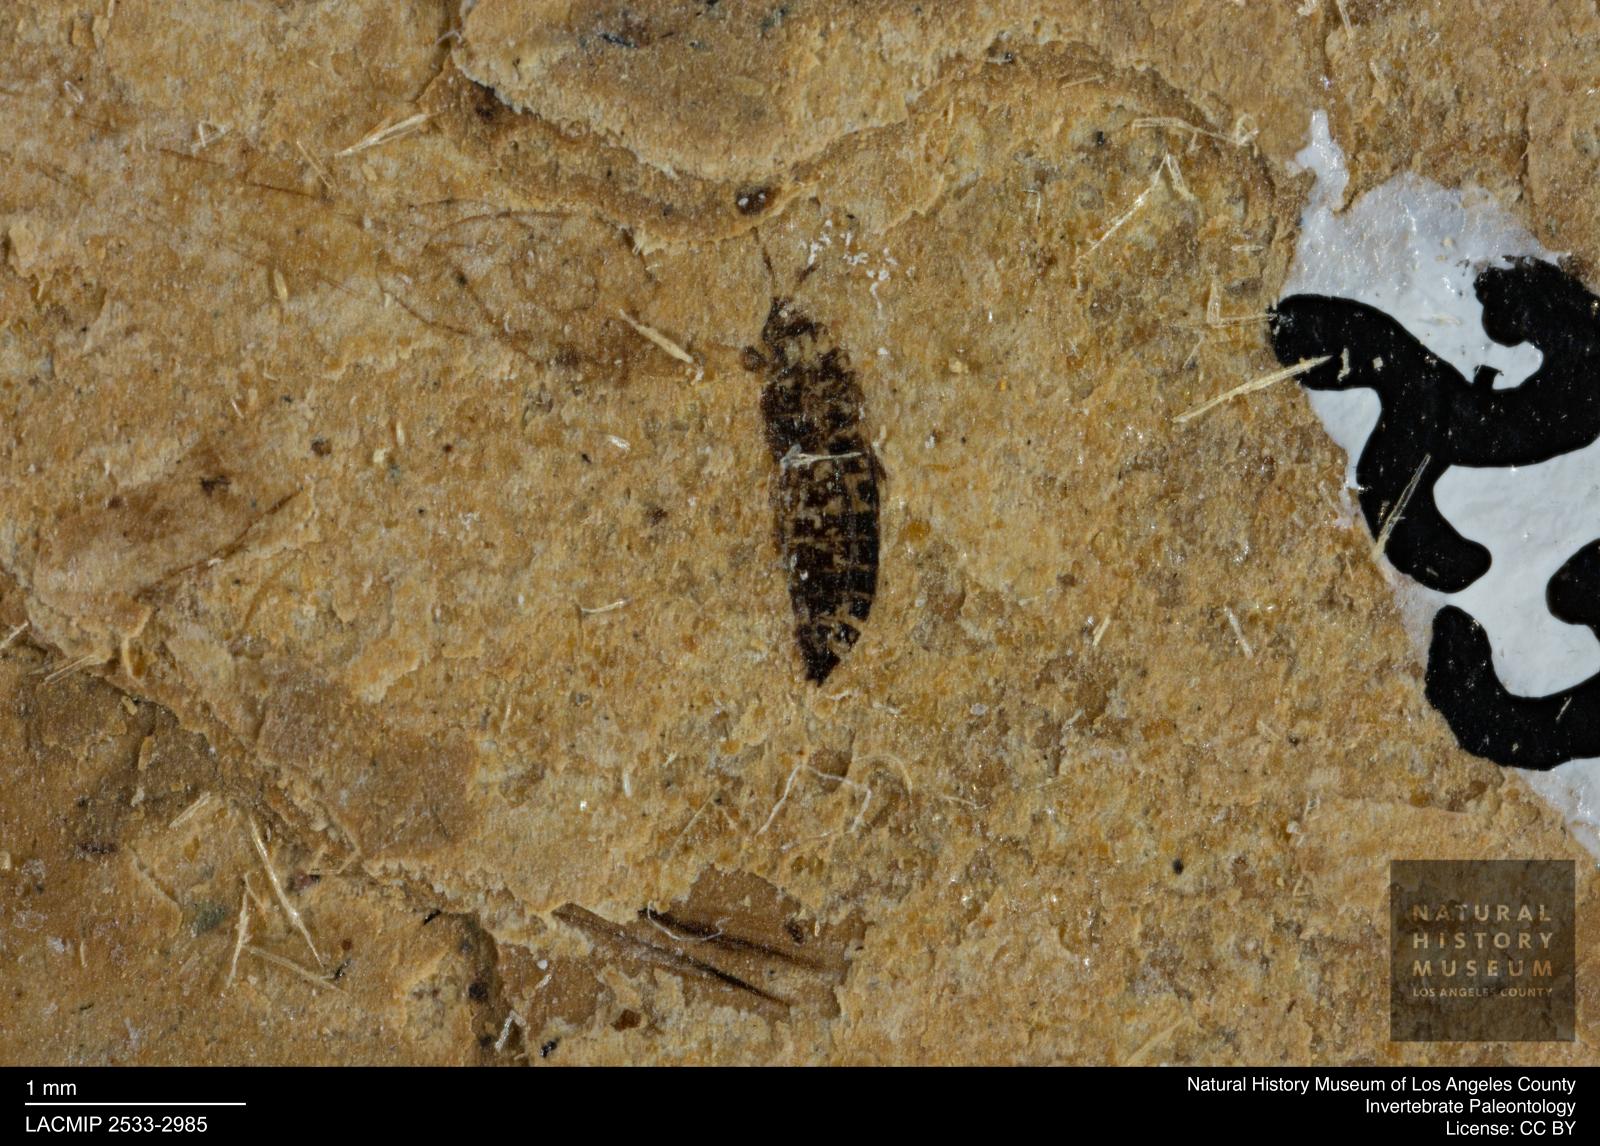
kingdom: Animalia
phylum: Arthropoda
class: Insecta
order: Thysanoptera
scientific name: Thysanoptera
